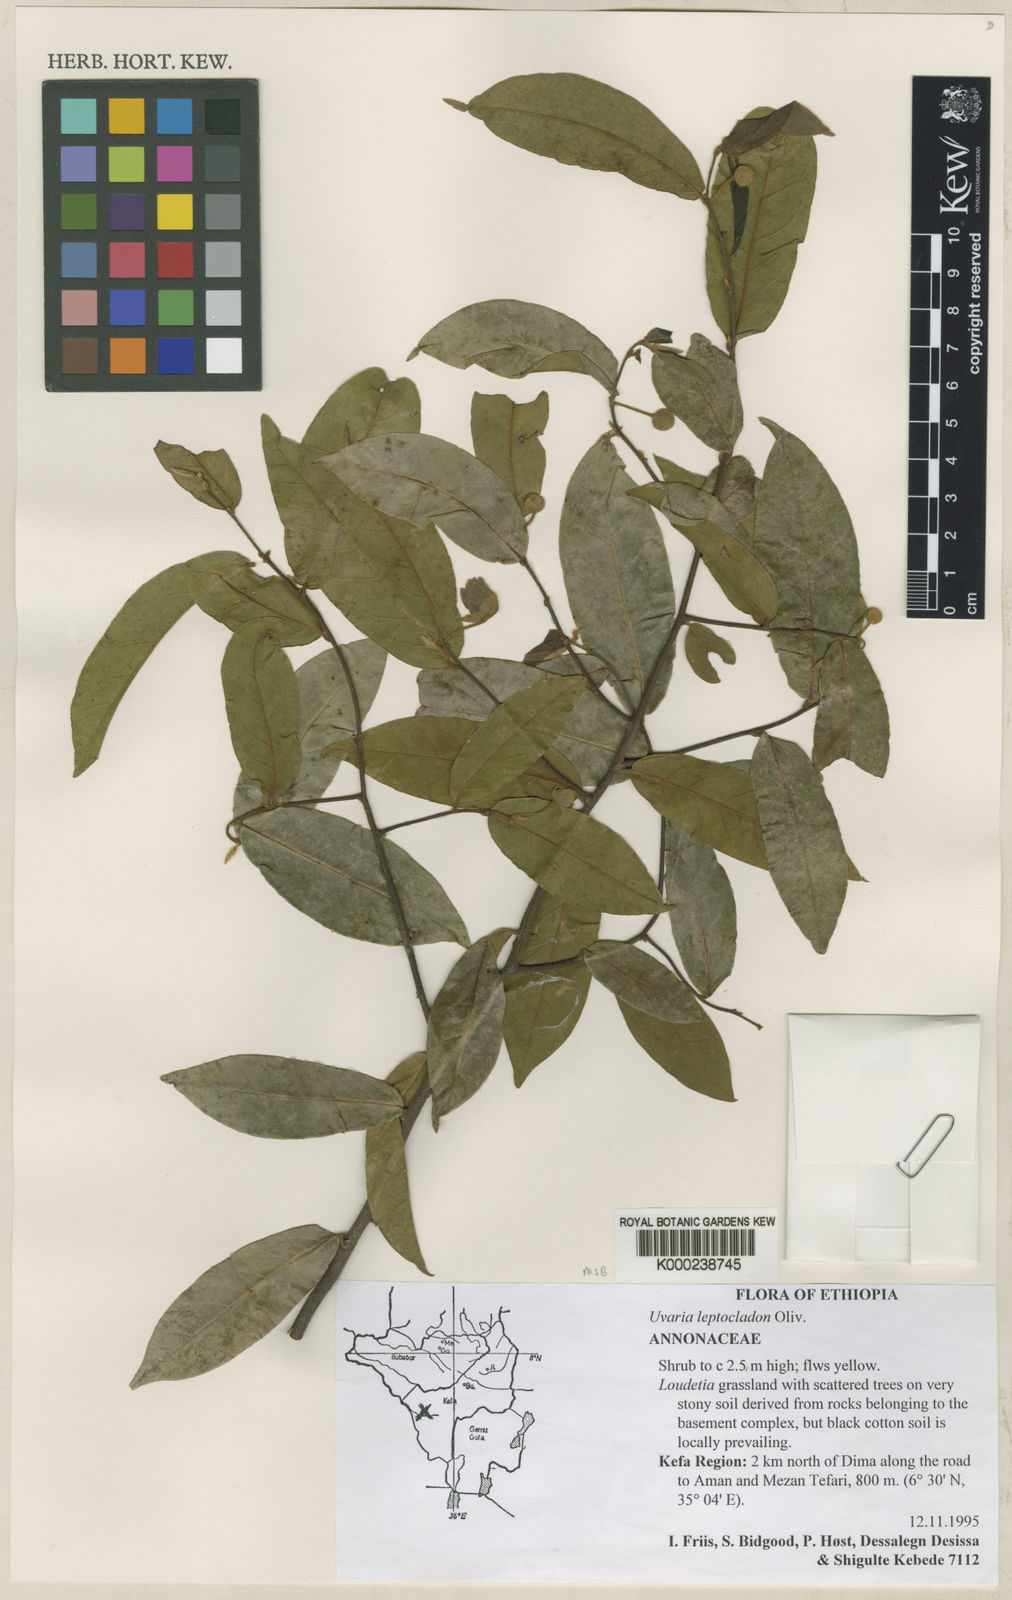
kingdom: Plantae
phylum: Tracheophyta
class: Magnoliopsida
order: Magnoliales
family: Annonaceae
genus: Uvaria
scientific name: Uvaria leptocladon
